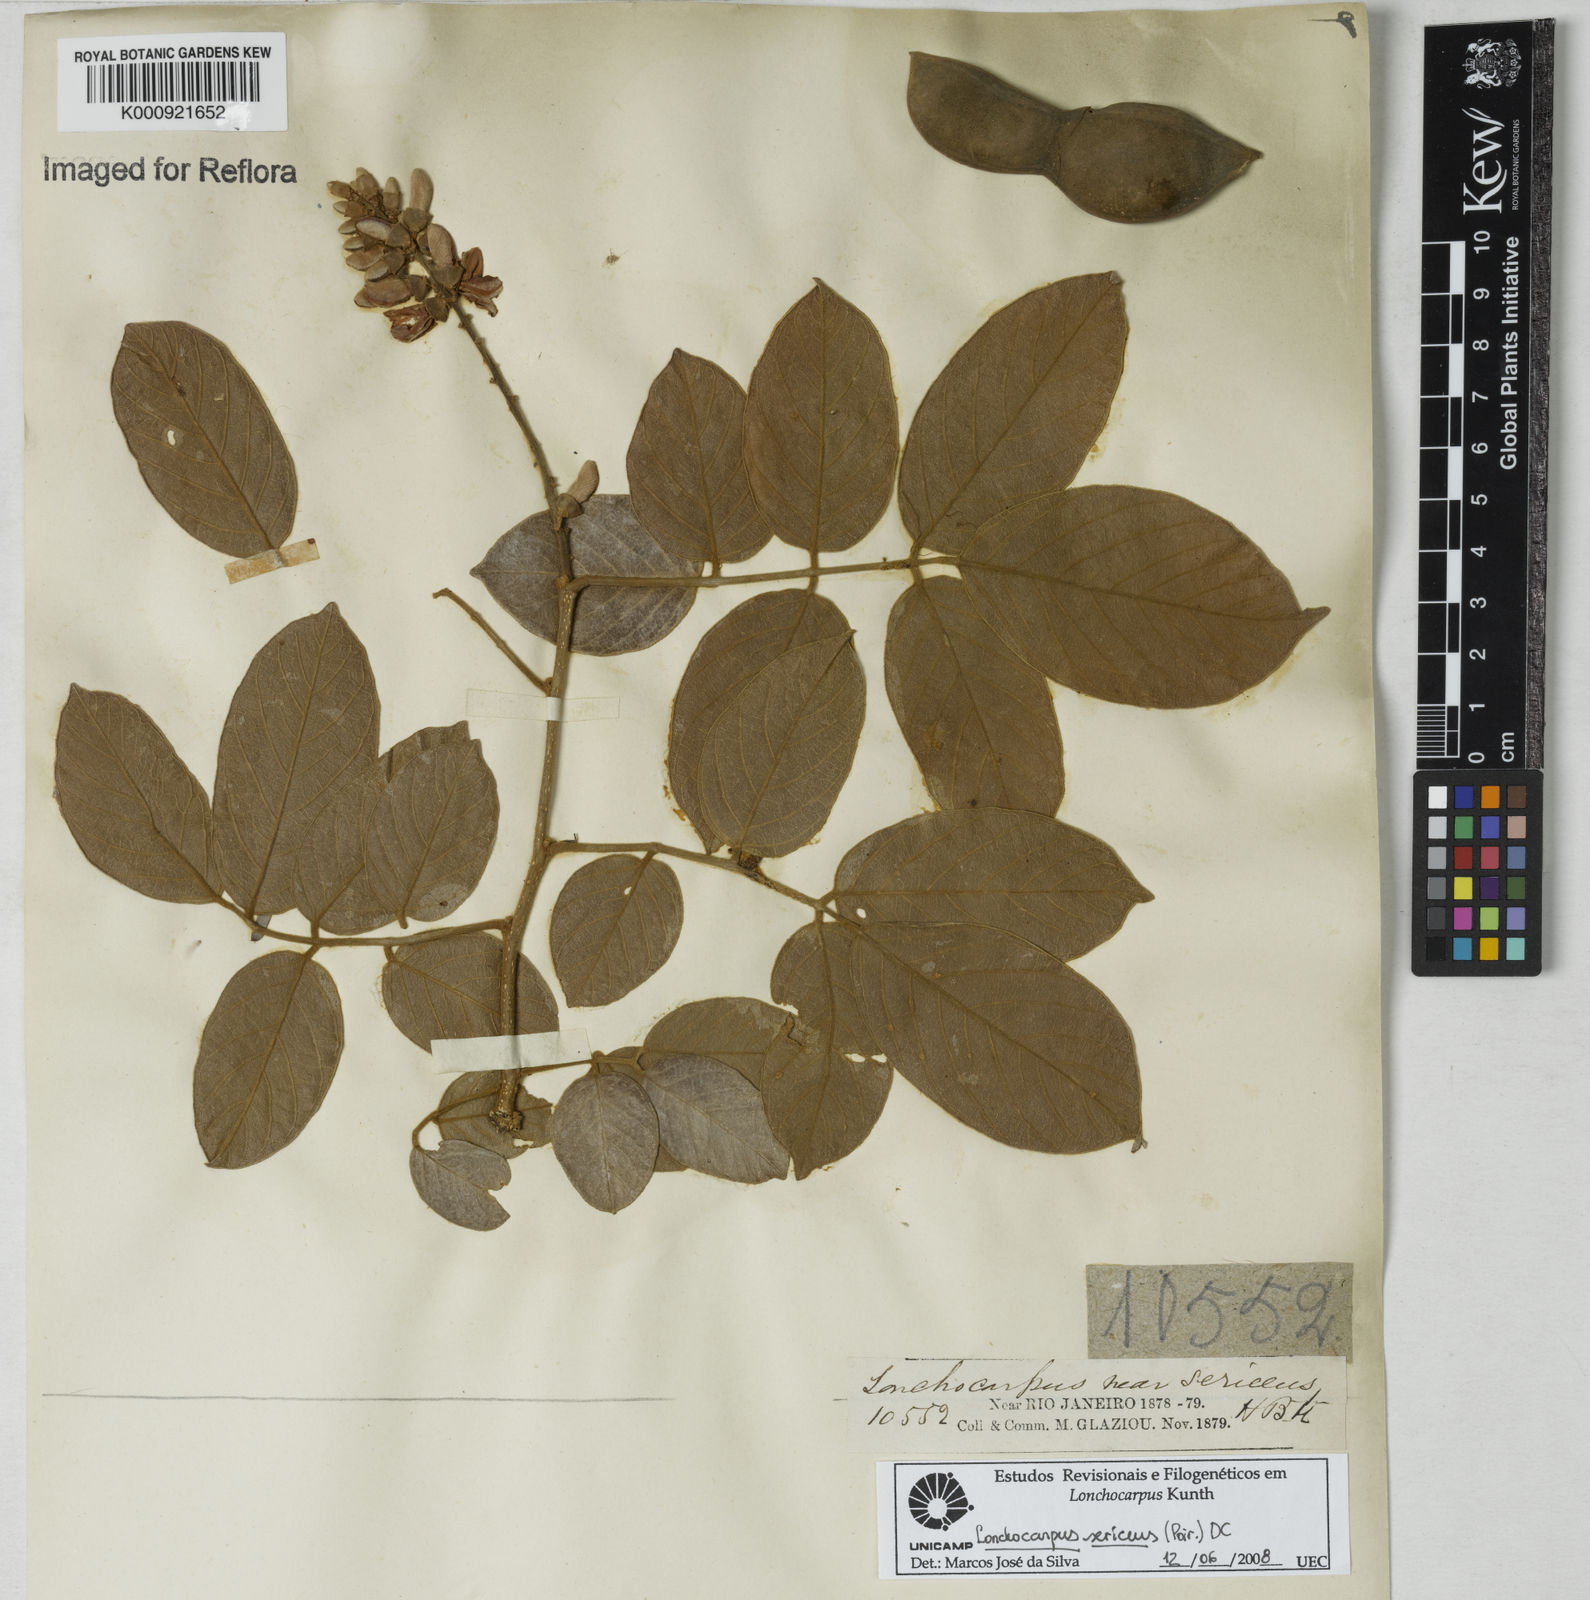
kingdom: Plantae
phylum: Tracheophyta
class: Magnoliopsida
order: Fabales
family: Fabaceae
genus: Lonchocarpus
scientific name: Lonchocarpus
